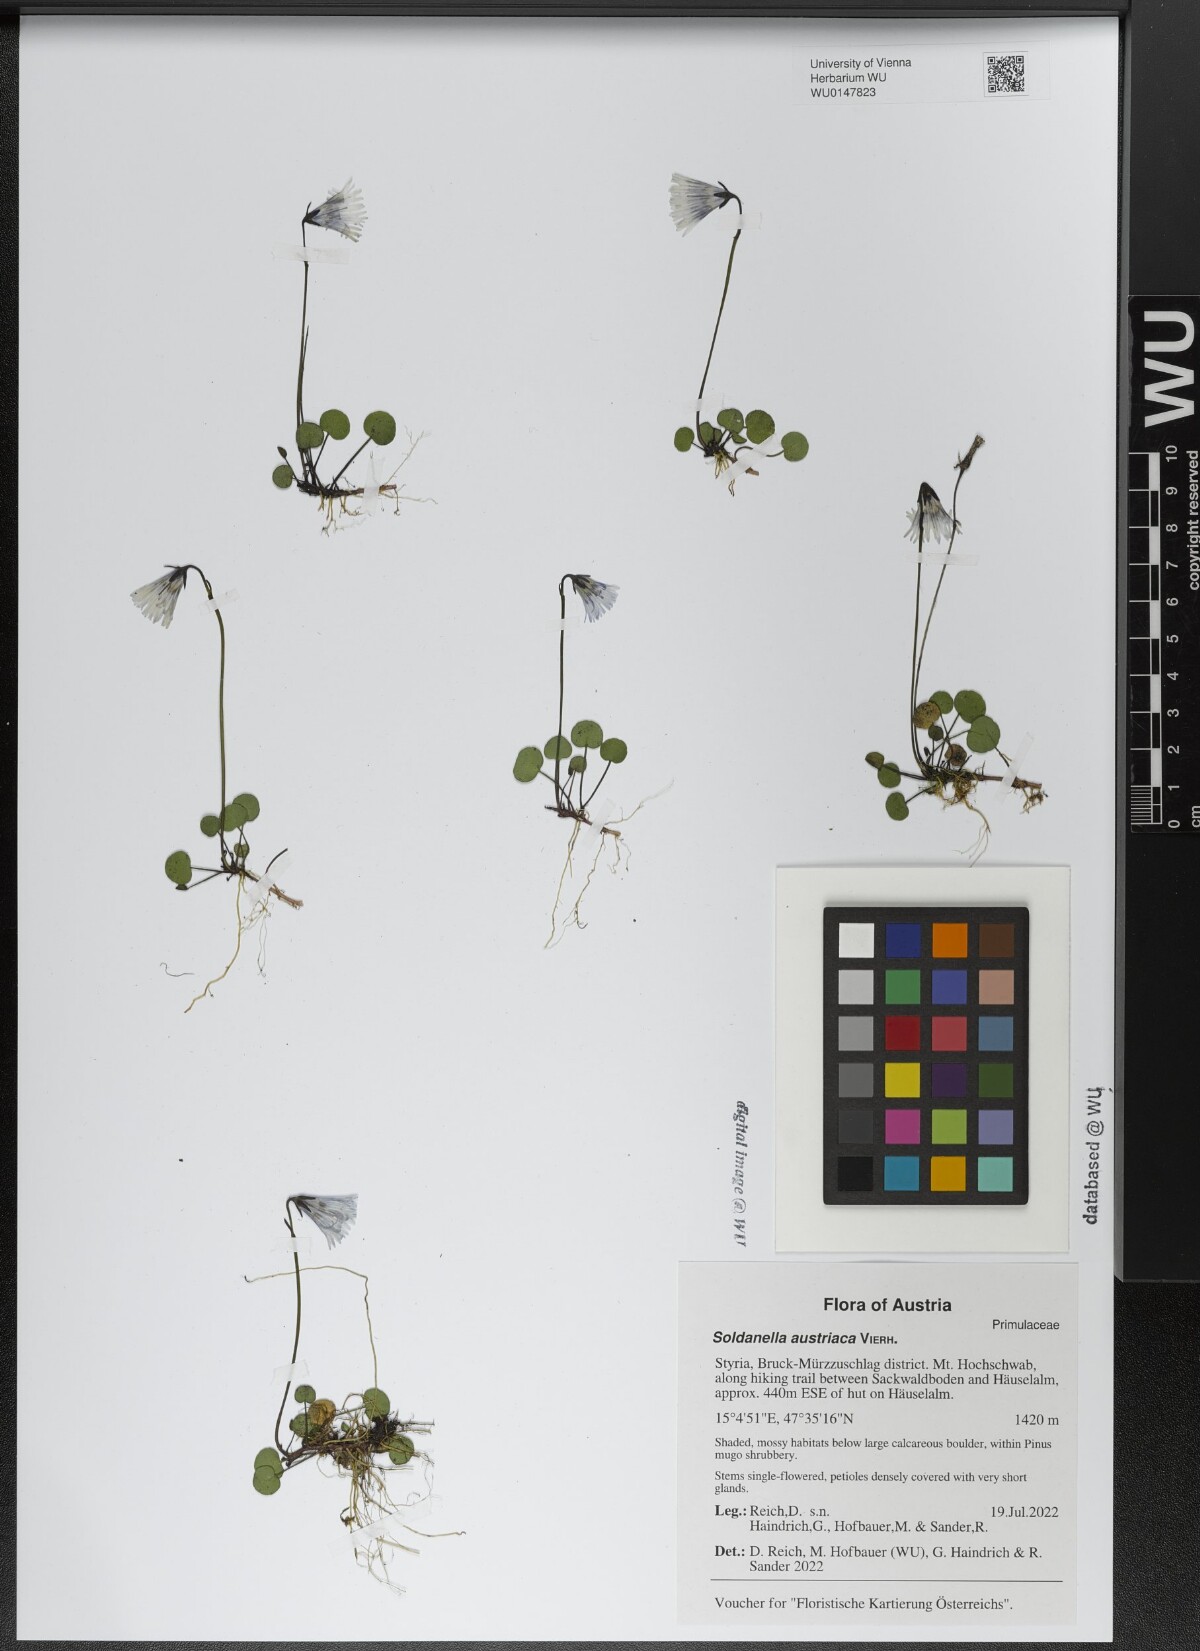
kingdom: Plantae
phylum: Tracheophyta
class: Magnoliopsida
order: Ericales
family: Primulaceae
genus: Soldanella
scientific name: Soldanella austriaca
